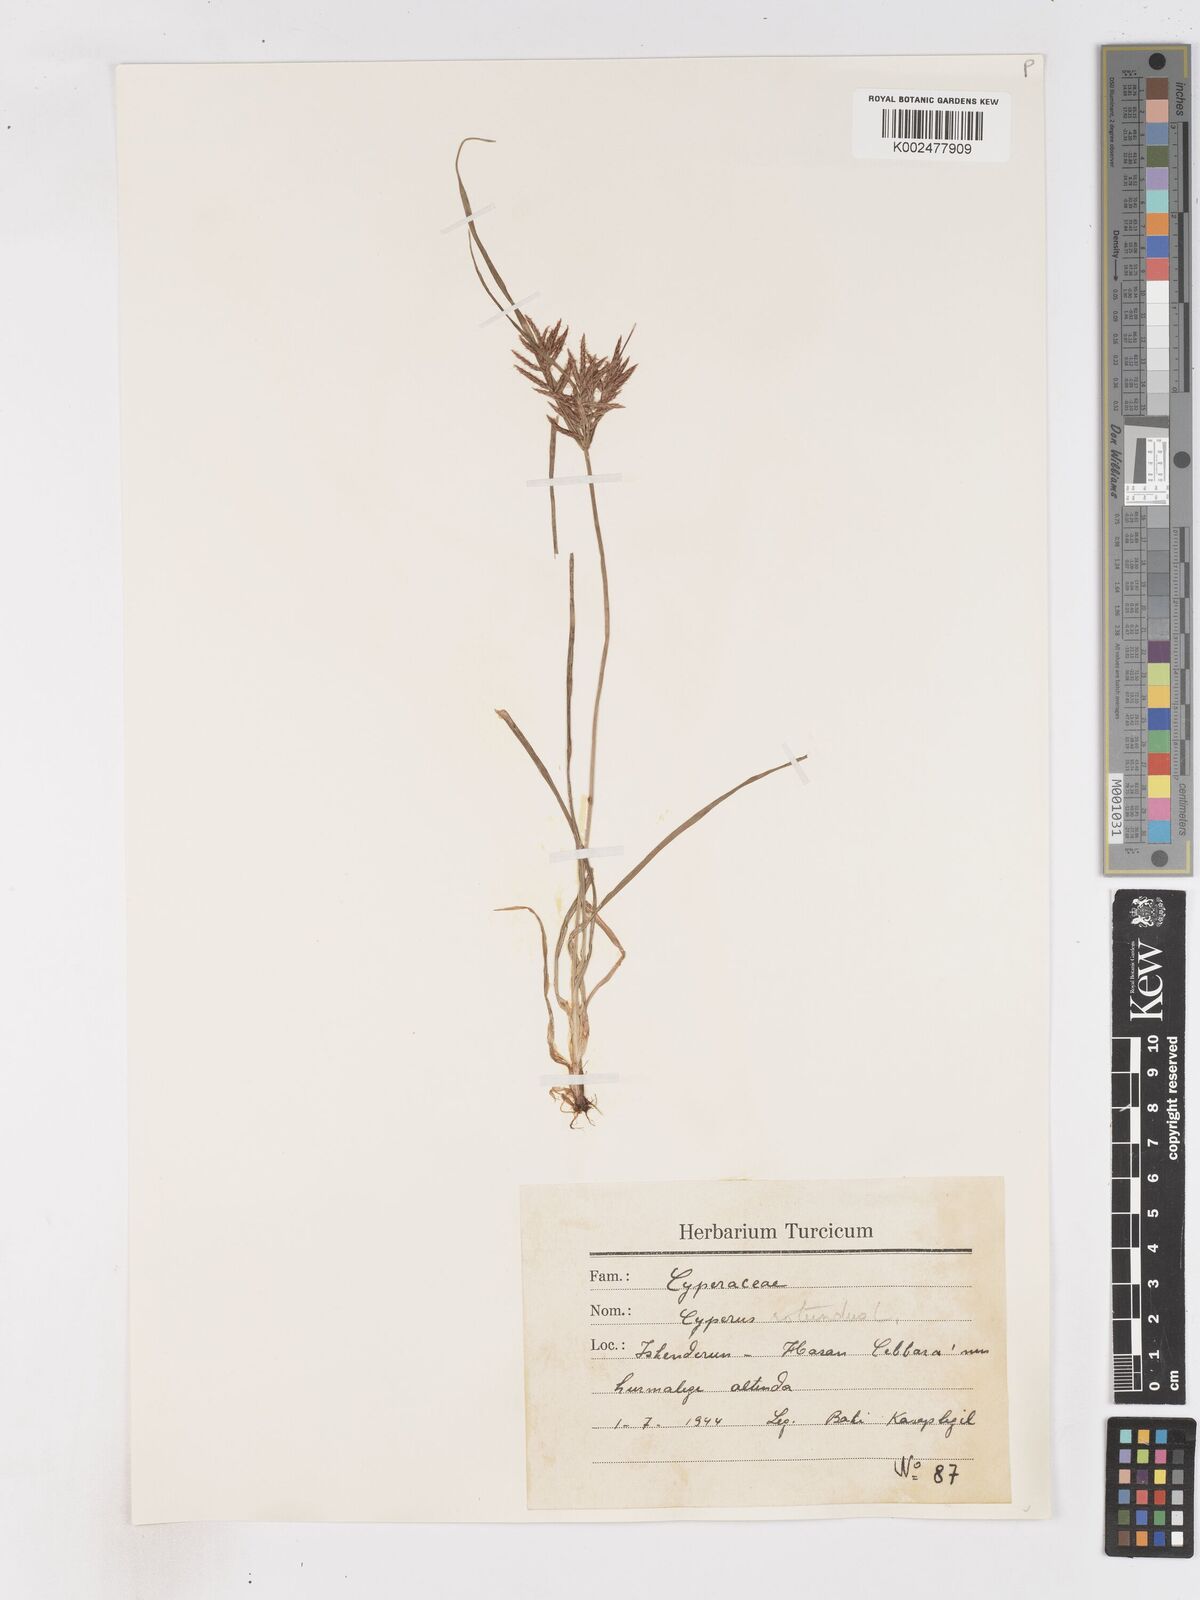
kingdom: Plantae
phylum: Tracheophyta
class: Liliopsida
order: Poales
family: Cyperaceae
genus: Cyperus
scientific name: Cyperus rotundus
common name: Nutgrass
